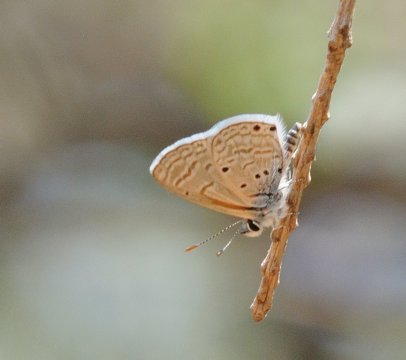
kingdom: Animalia
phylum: Arthropoda
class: Insecta
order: Lepidoptera
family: Lycaenidae
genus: Azanus
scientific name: Azanus ubaldus
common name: Bright Babul Blue
